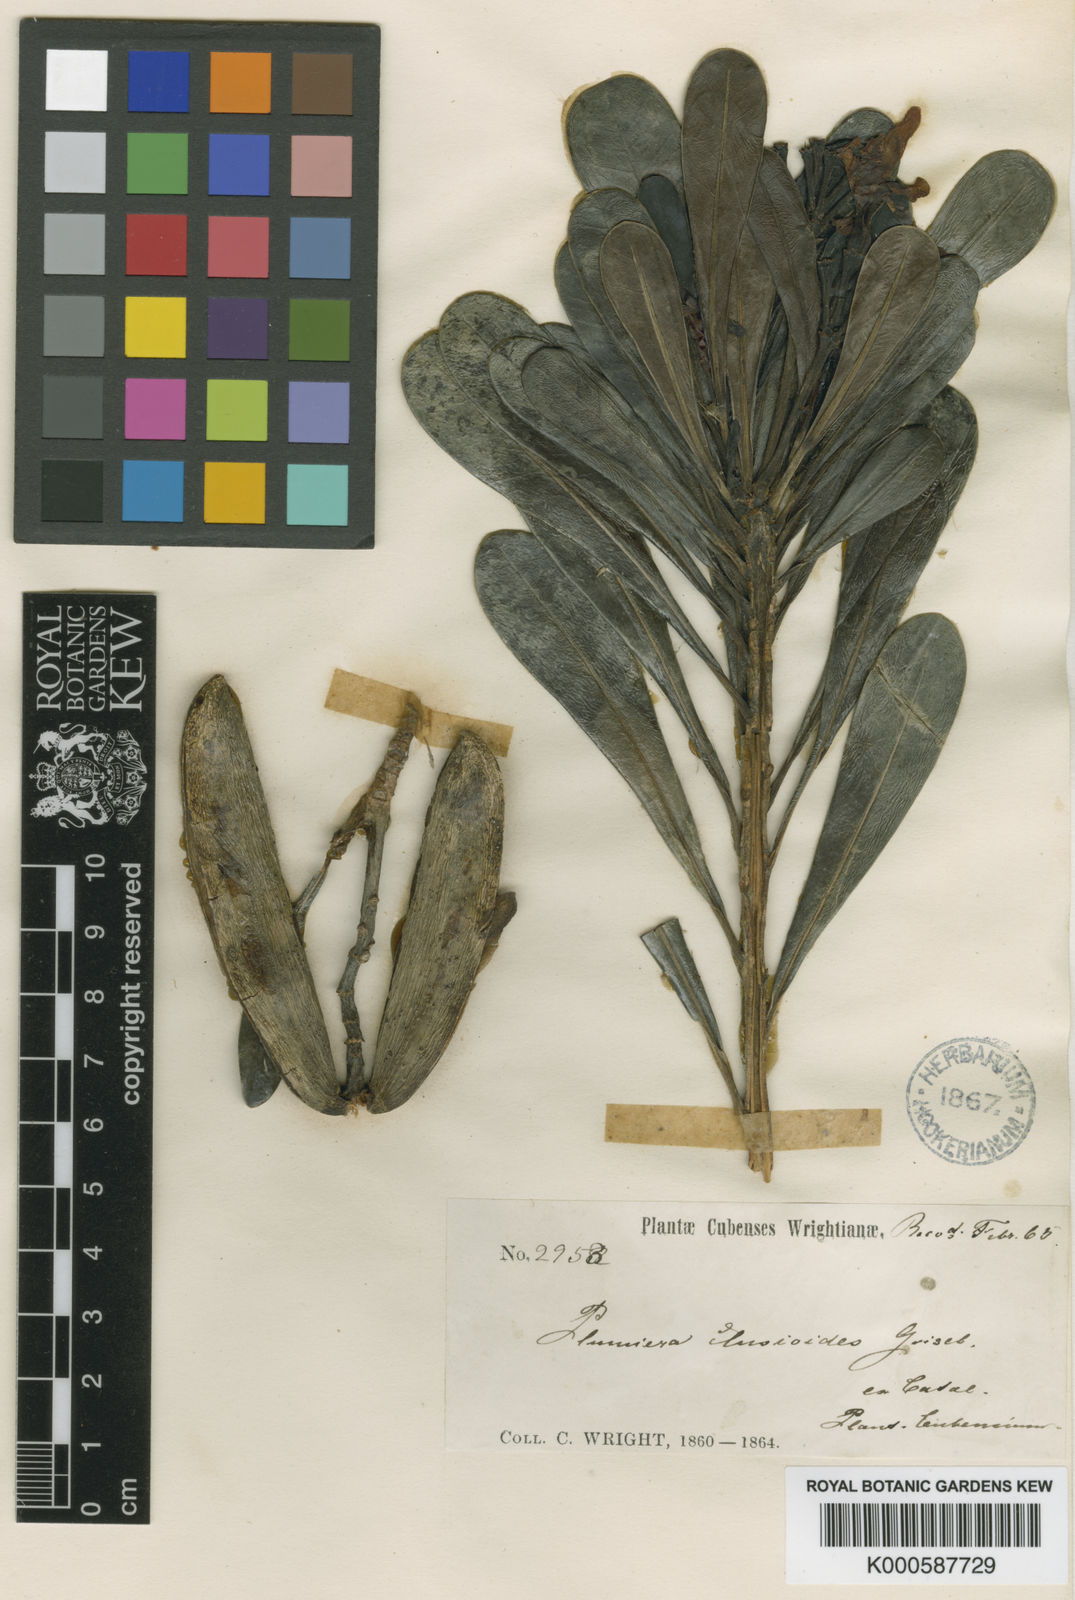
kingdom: Plantae
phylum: Tracheophyta
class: Magnoliopsida
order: Gentianales
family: Apocynaceae
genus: Plumeria
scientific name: Plumeria obtusa
